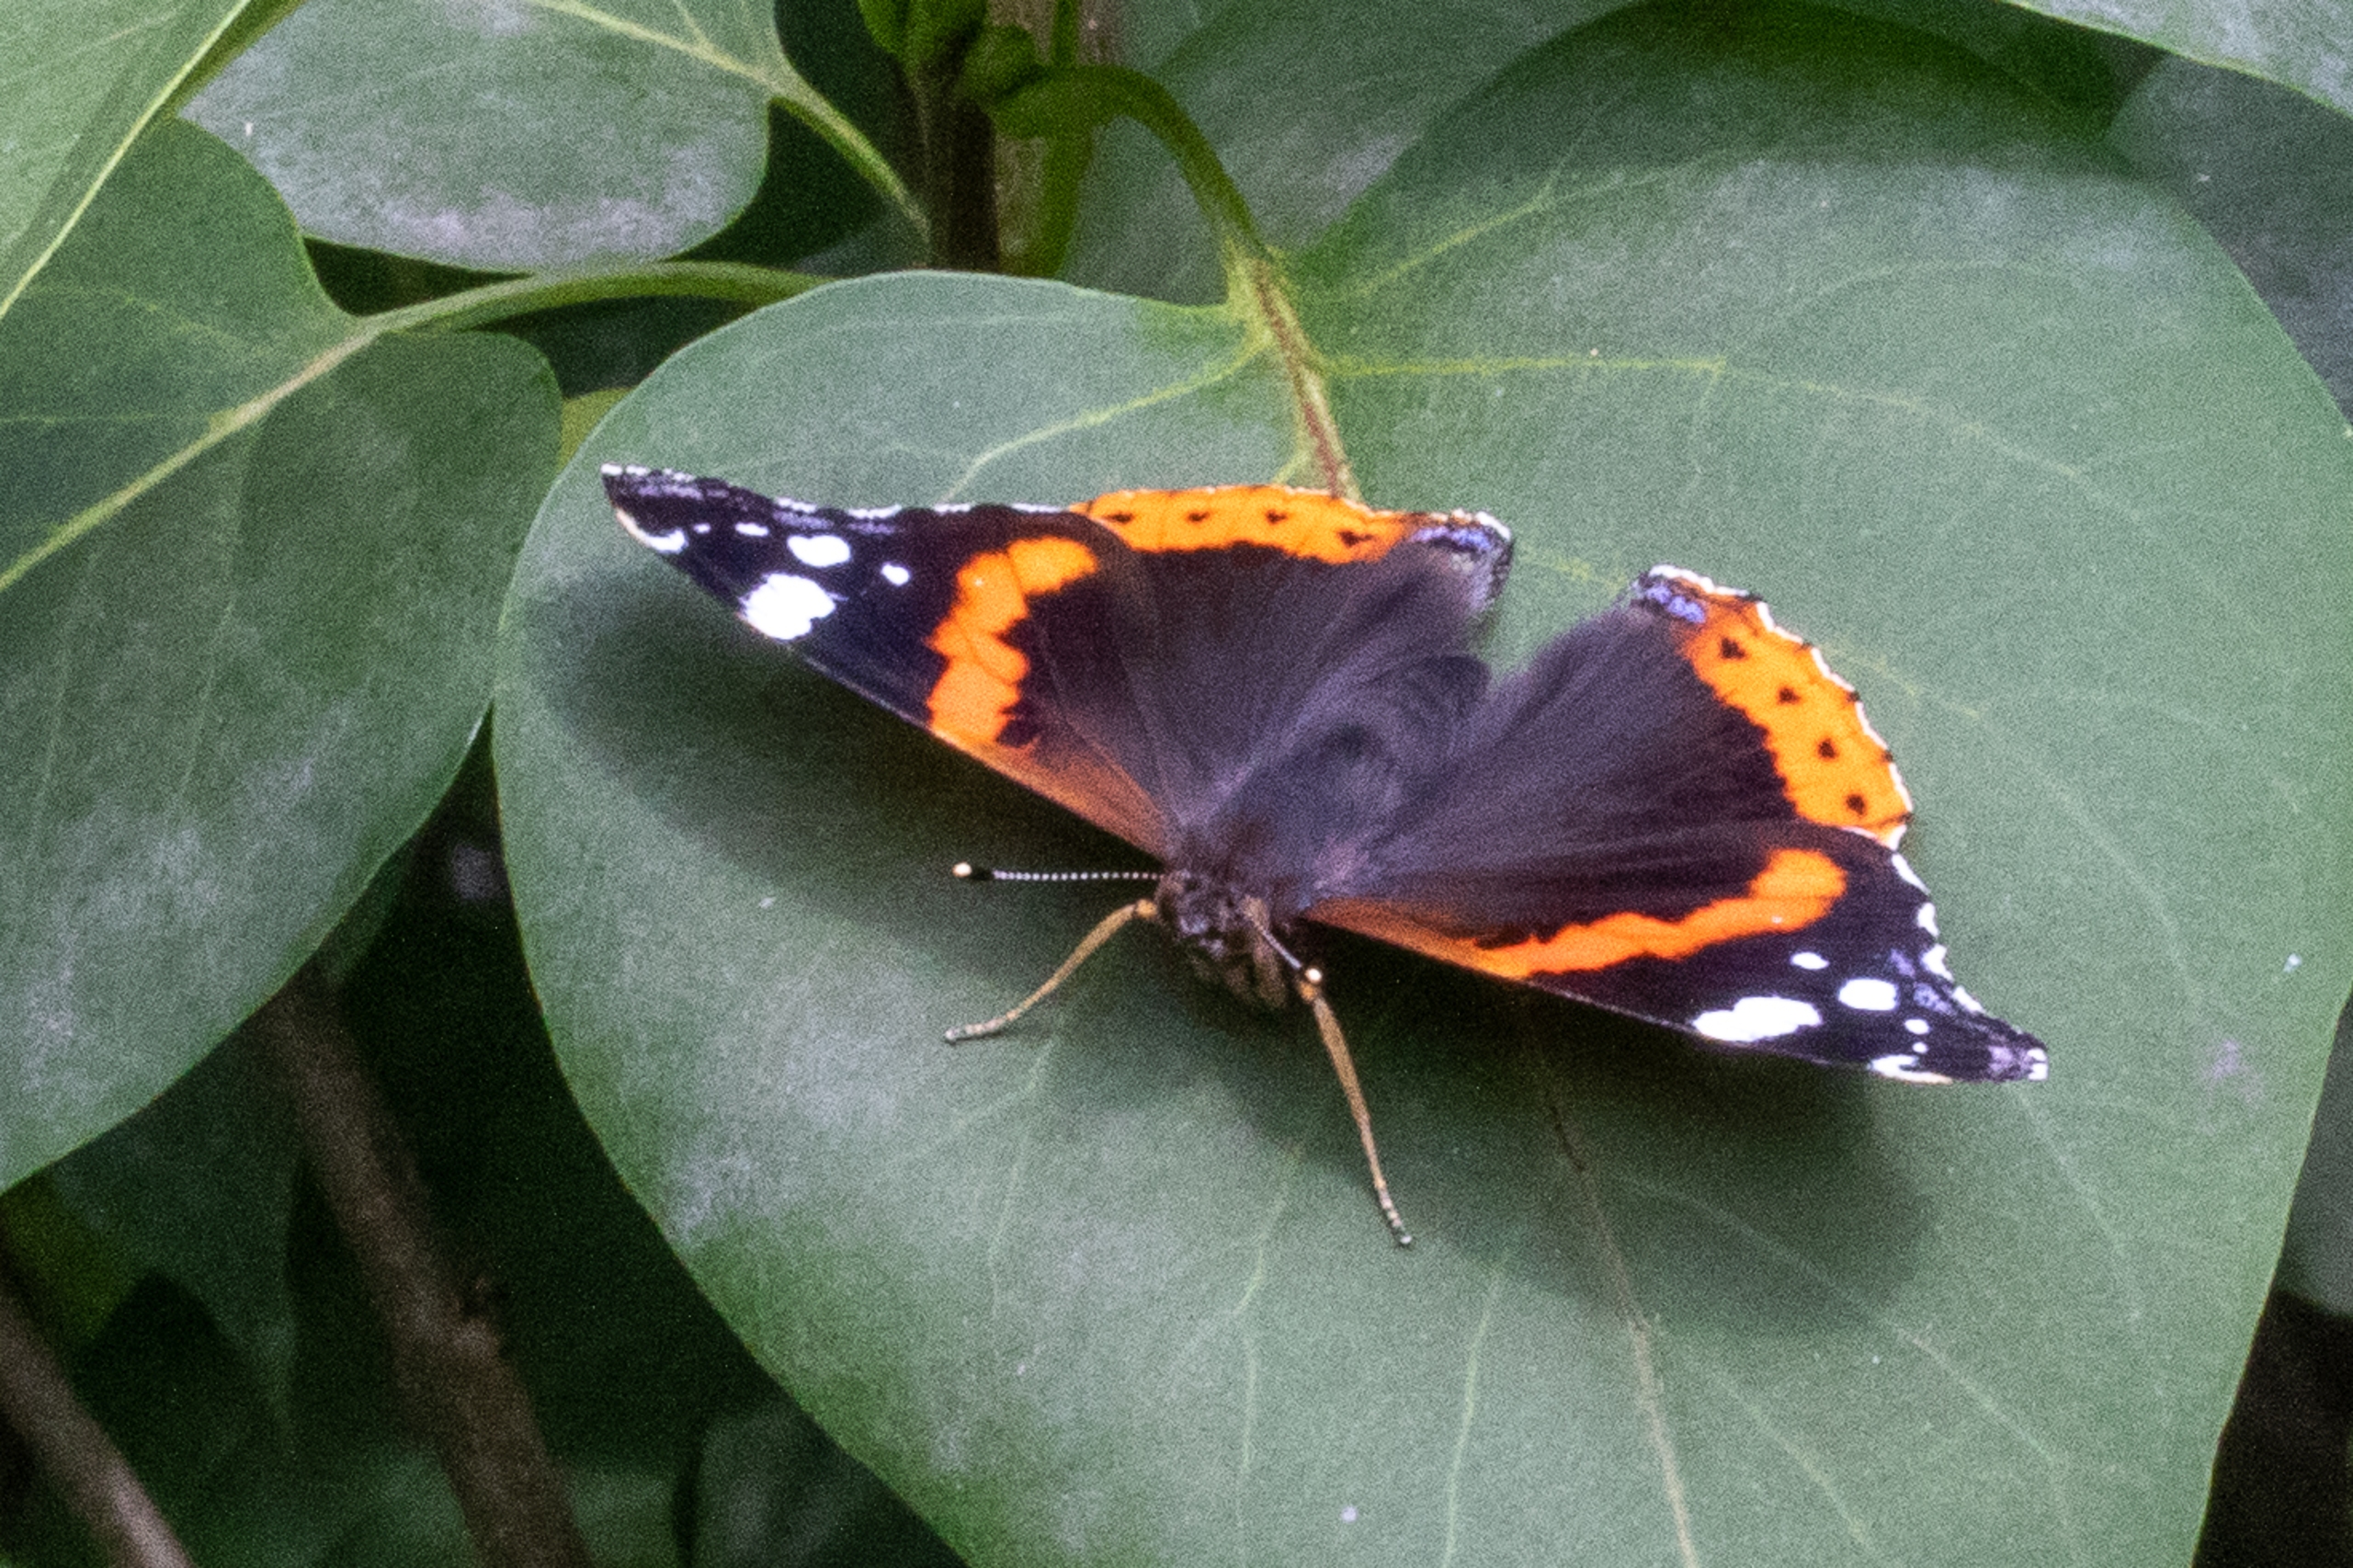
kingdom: Animalia
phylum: Arthropoda
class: Insecta
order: Lepidoptera
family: Nymphalidae
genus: Vanessa
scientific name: Vanessa atalanta
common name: Admiral
